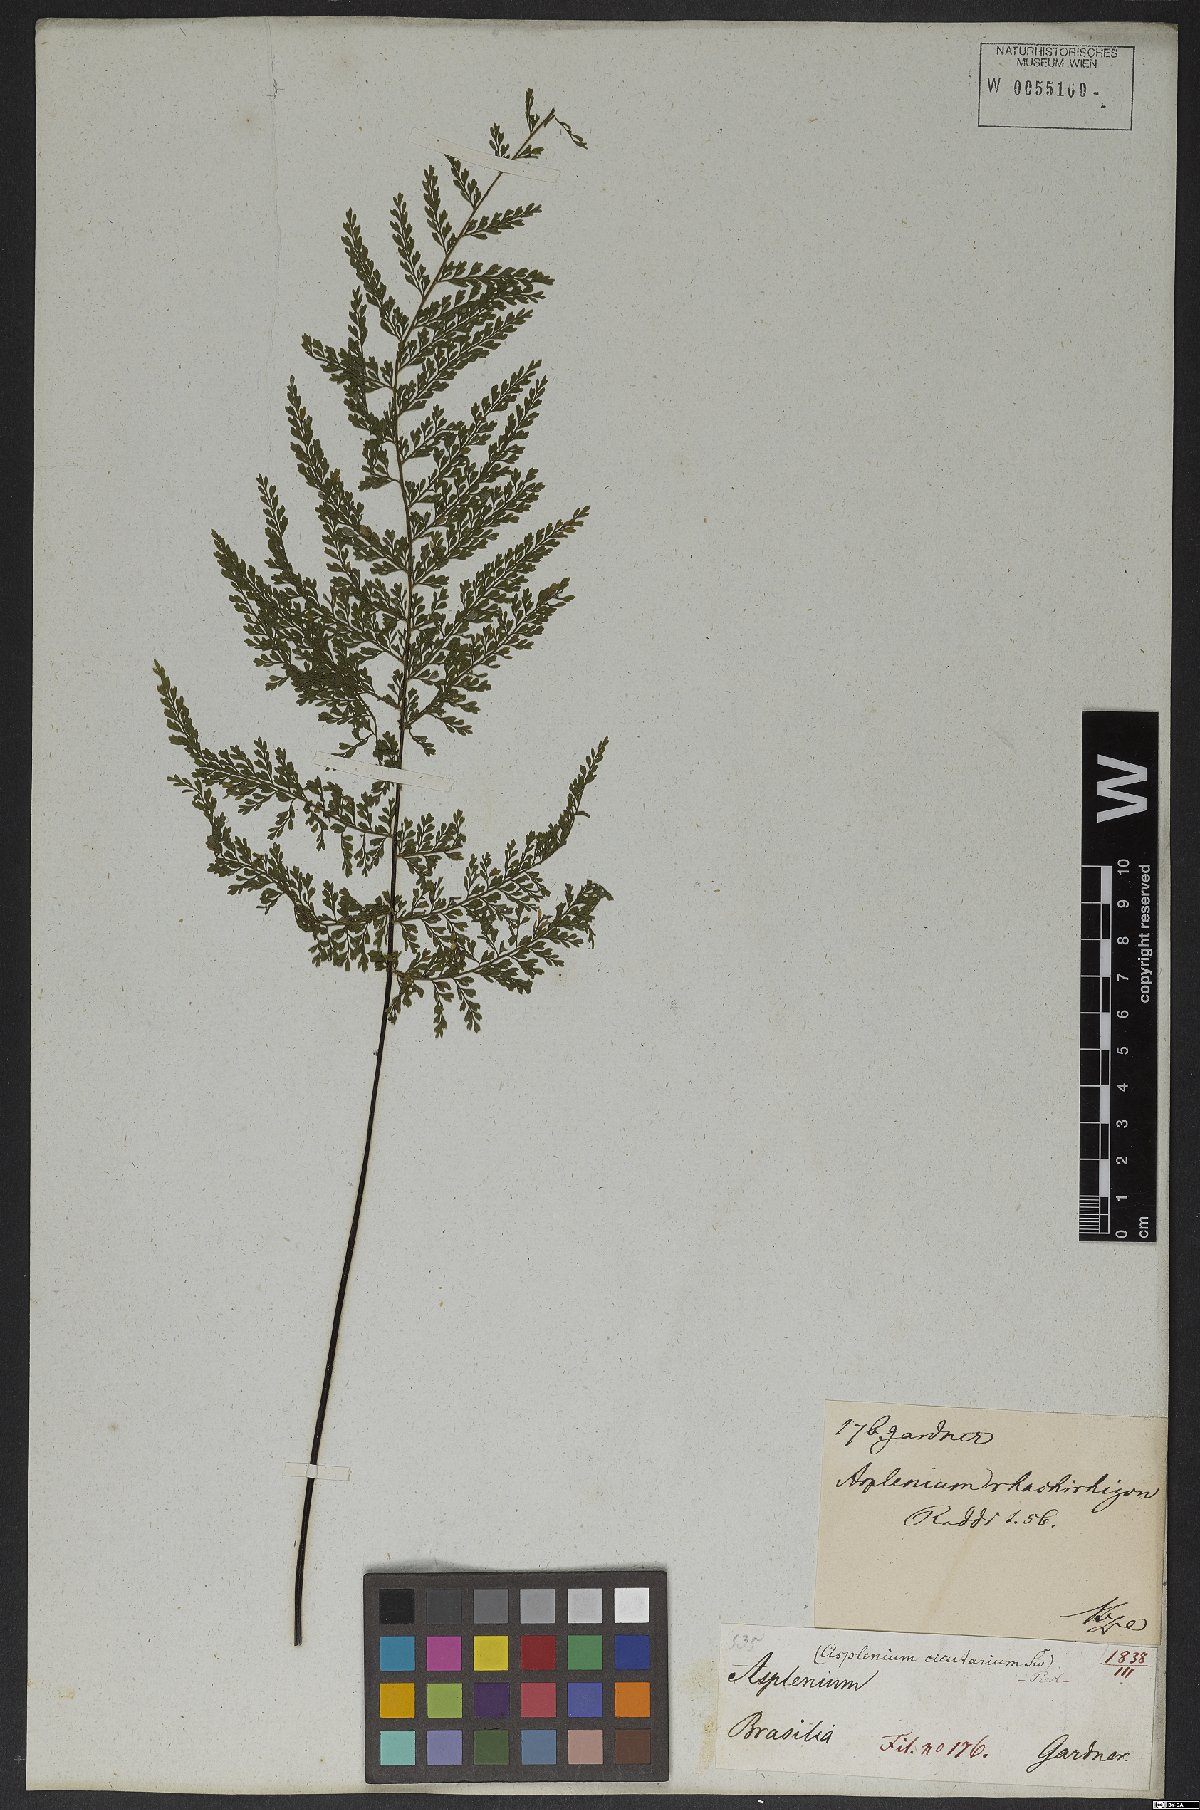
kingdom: Plantae
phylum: Tracheophyta
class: Polypodiopsida
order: Polypodiales
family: Aspleniaceae
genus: Asplenium
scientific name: Asplenium uniseriale
